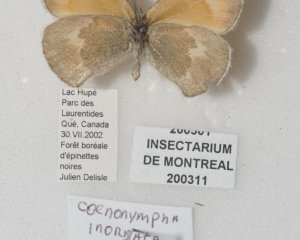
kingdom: Animalia
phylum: Arthropoda
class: Insecta
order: Lepidoptera
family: Nymphalidae
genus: Coenonympha
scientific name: Coenonympha tullia
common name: Large Heath
